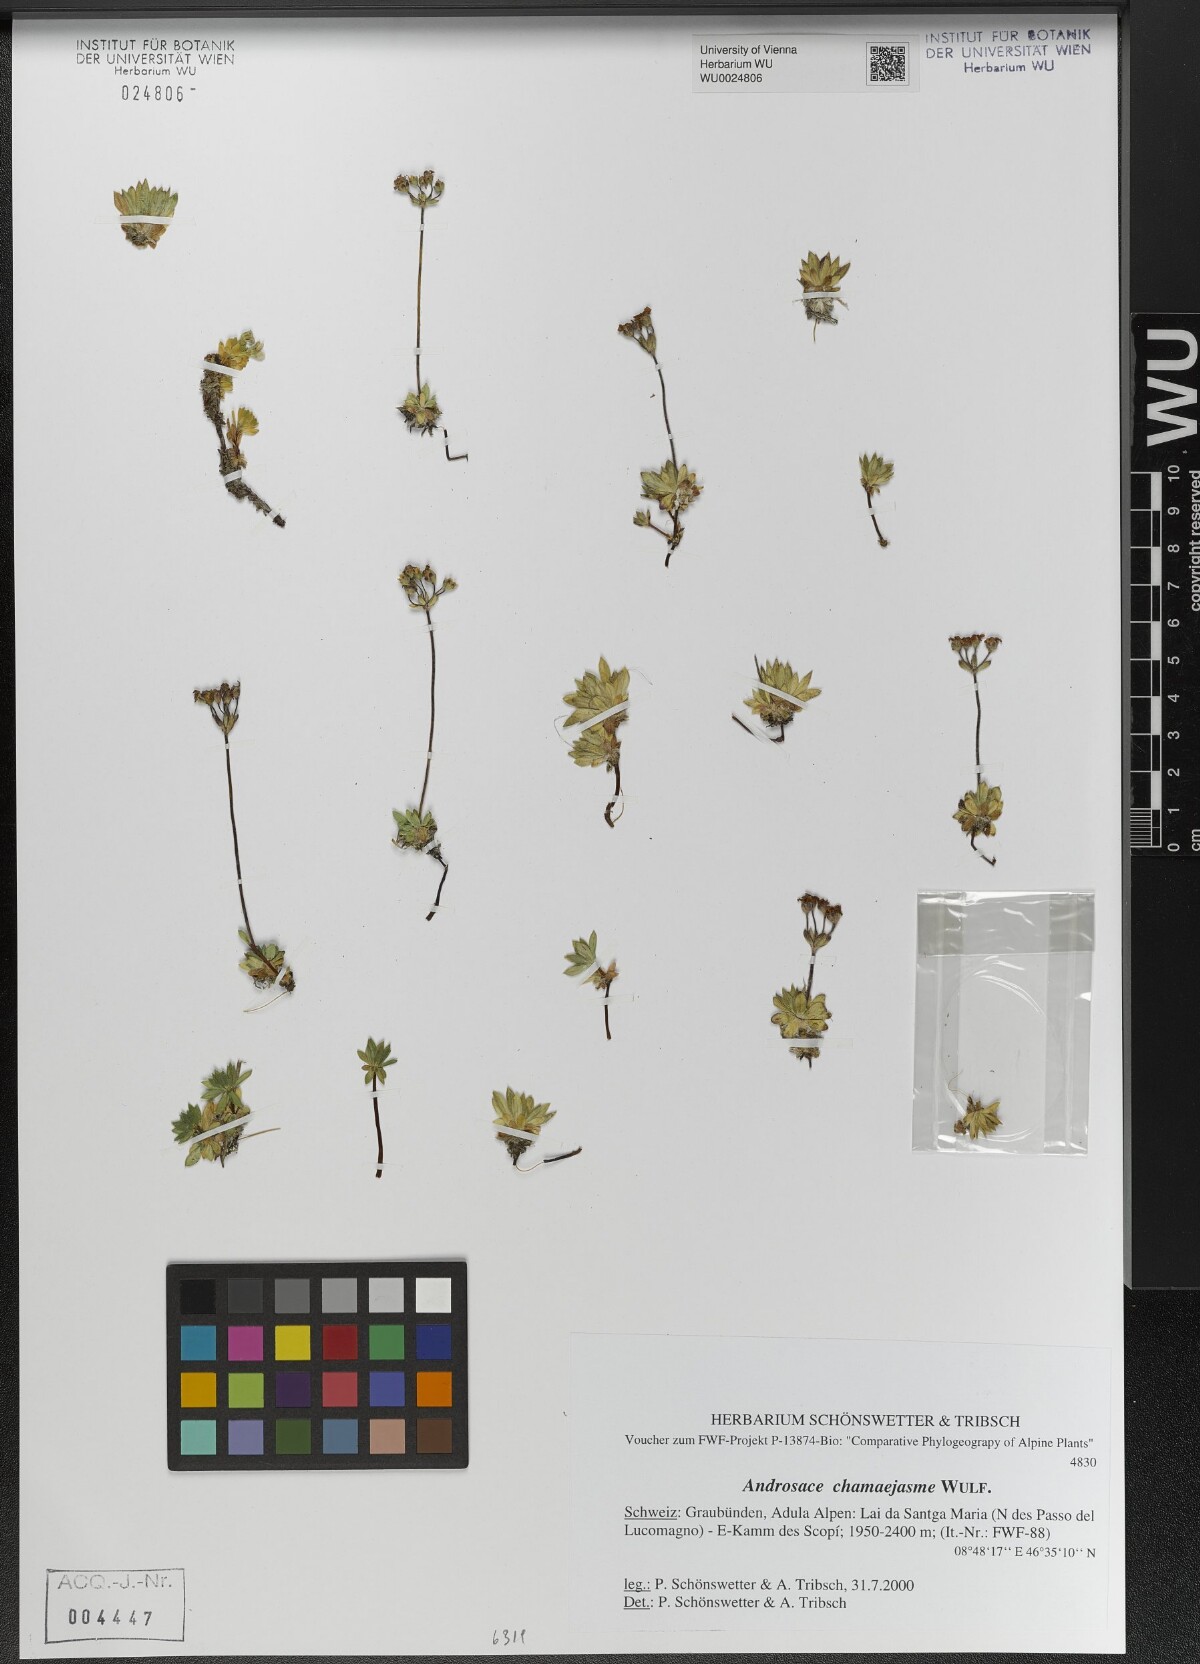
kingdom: Plantae
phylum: Tracheophyta
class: Magnoliopsida
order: Ericales
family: Primulaceae
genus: Androsace
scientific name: Androsace chamaejasme
